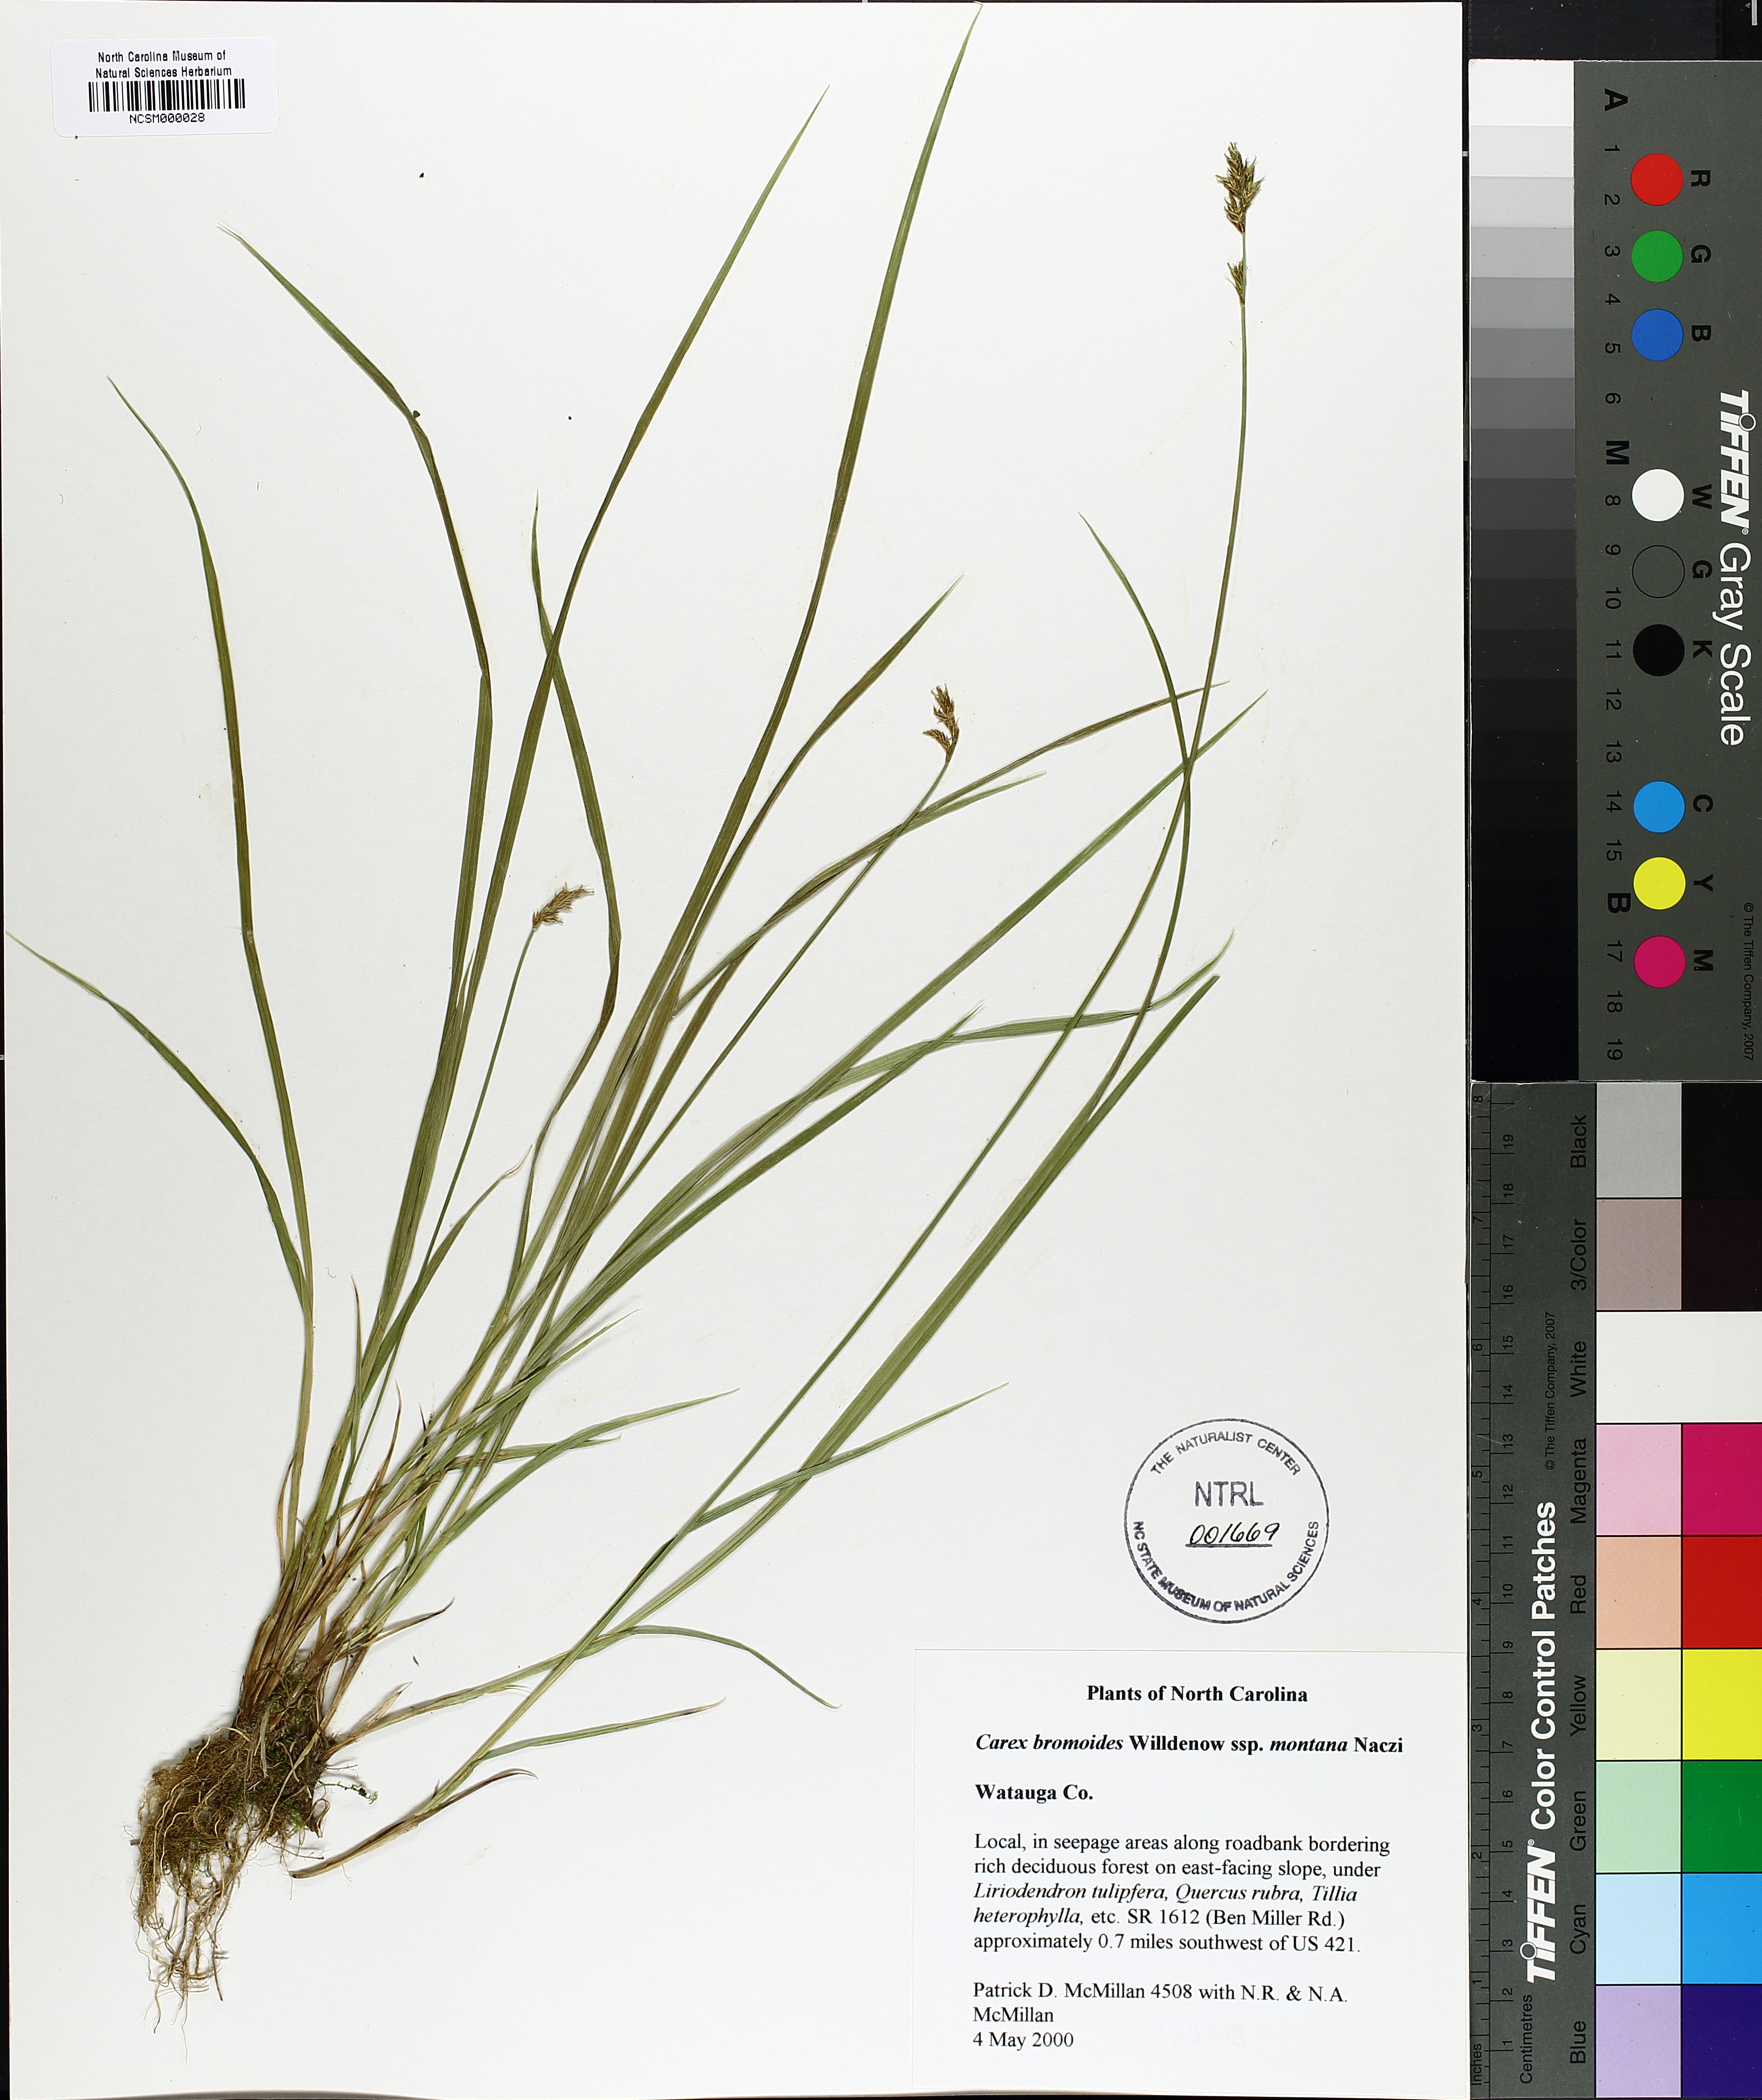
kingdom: Plantae
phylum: Tracheophyta
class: Liliopsida
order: Poales
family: Cyperaceae
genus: Carex
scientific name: Carex bromoides
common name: Brome hummock sedge
